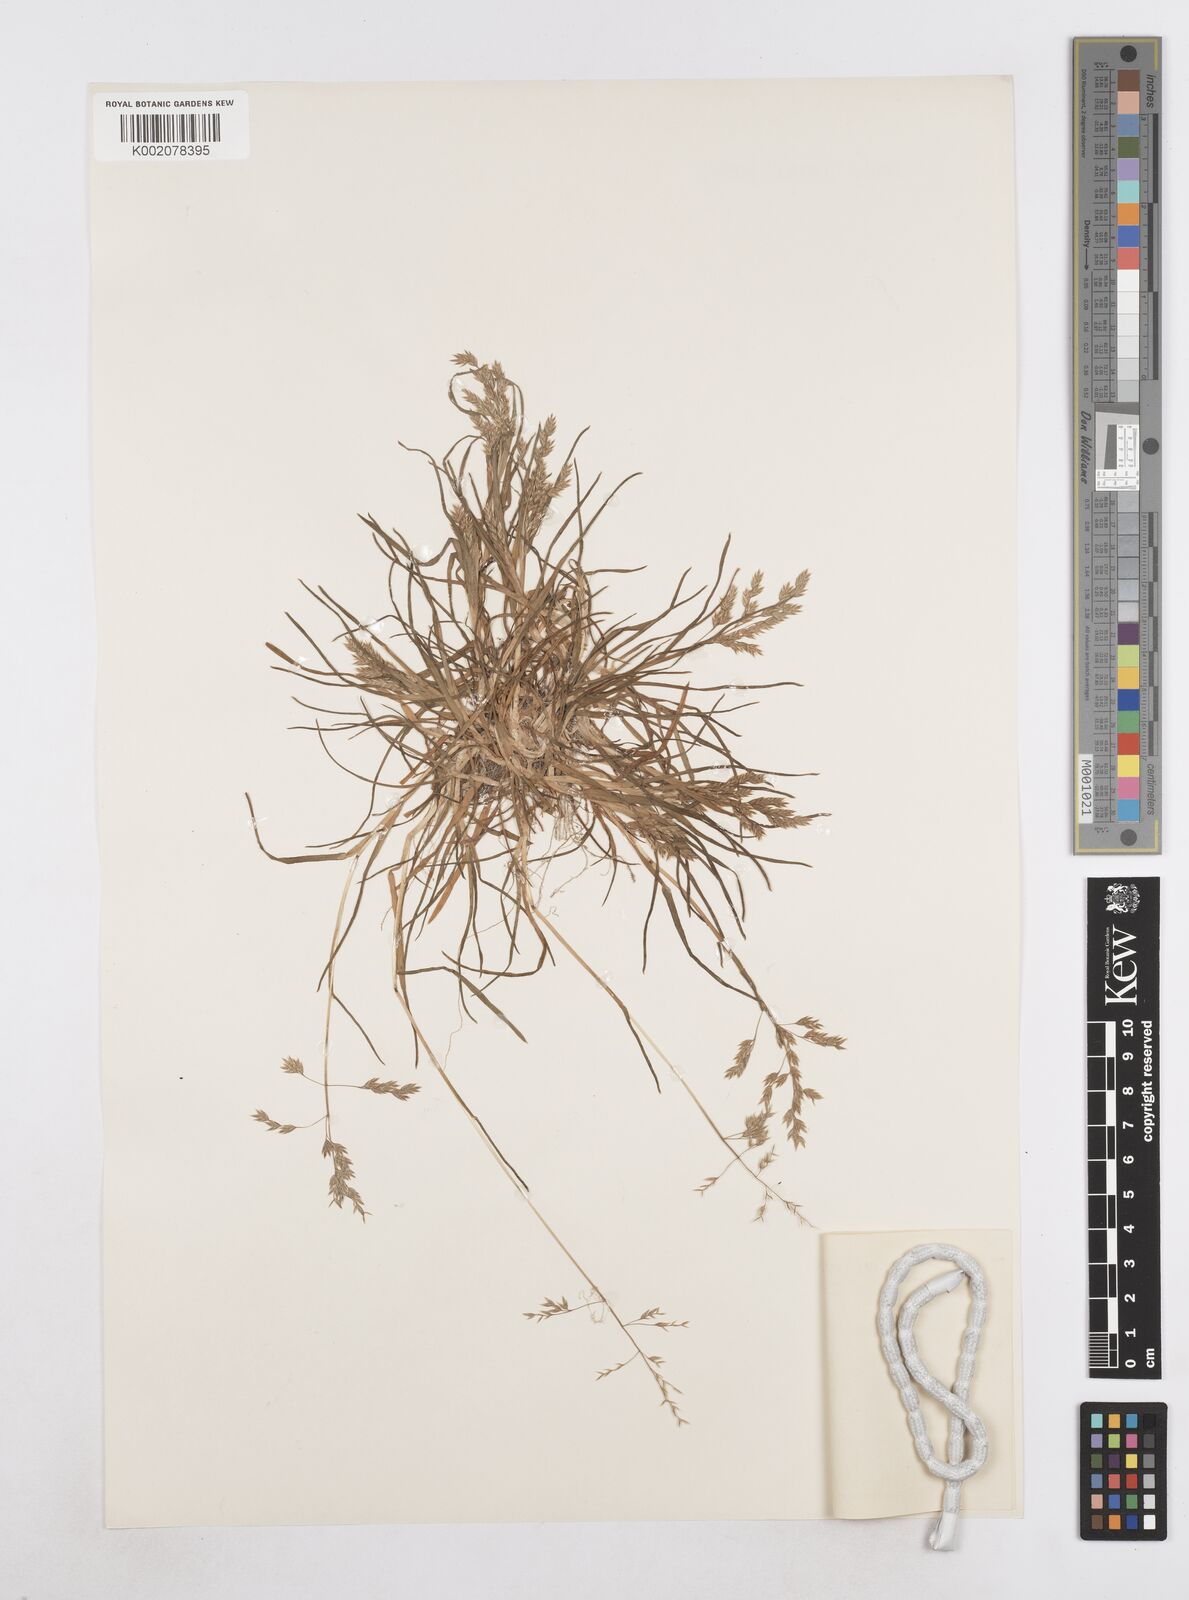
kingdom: Plantae
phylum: Tracheophyta
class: Liliopsida
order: Poales
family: Poaceae
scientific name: Poaceae
